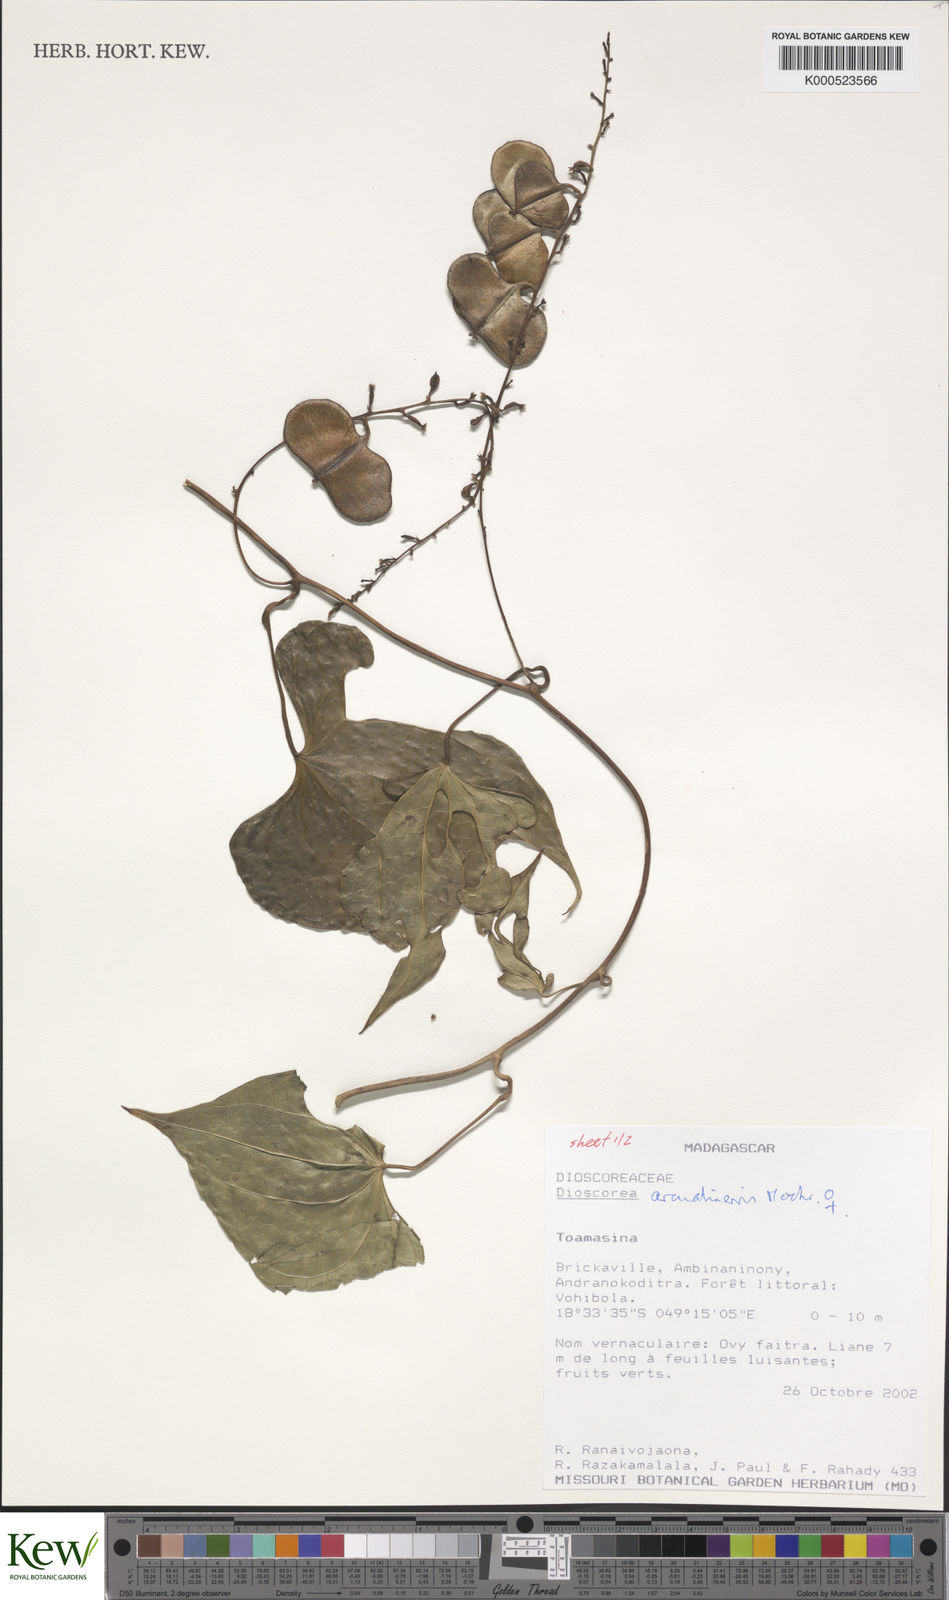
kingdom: Plantae
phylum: Tracheophyta
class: Liliopsida
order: Dioscoreales
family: Dioscoreaceae
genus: Dioscorea
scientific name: Dioscorea arcuatinervis
